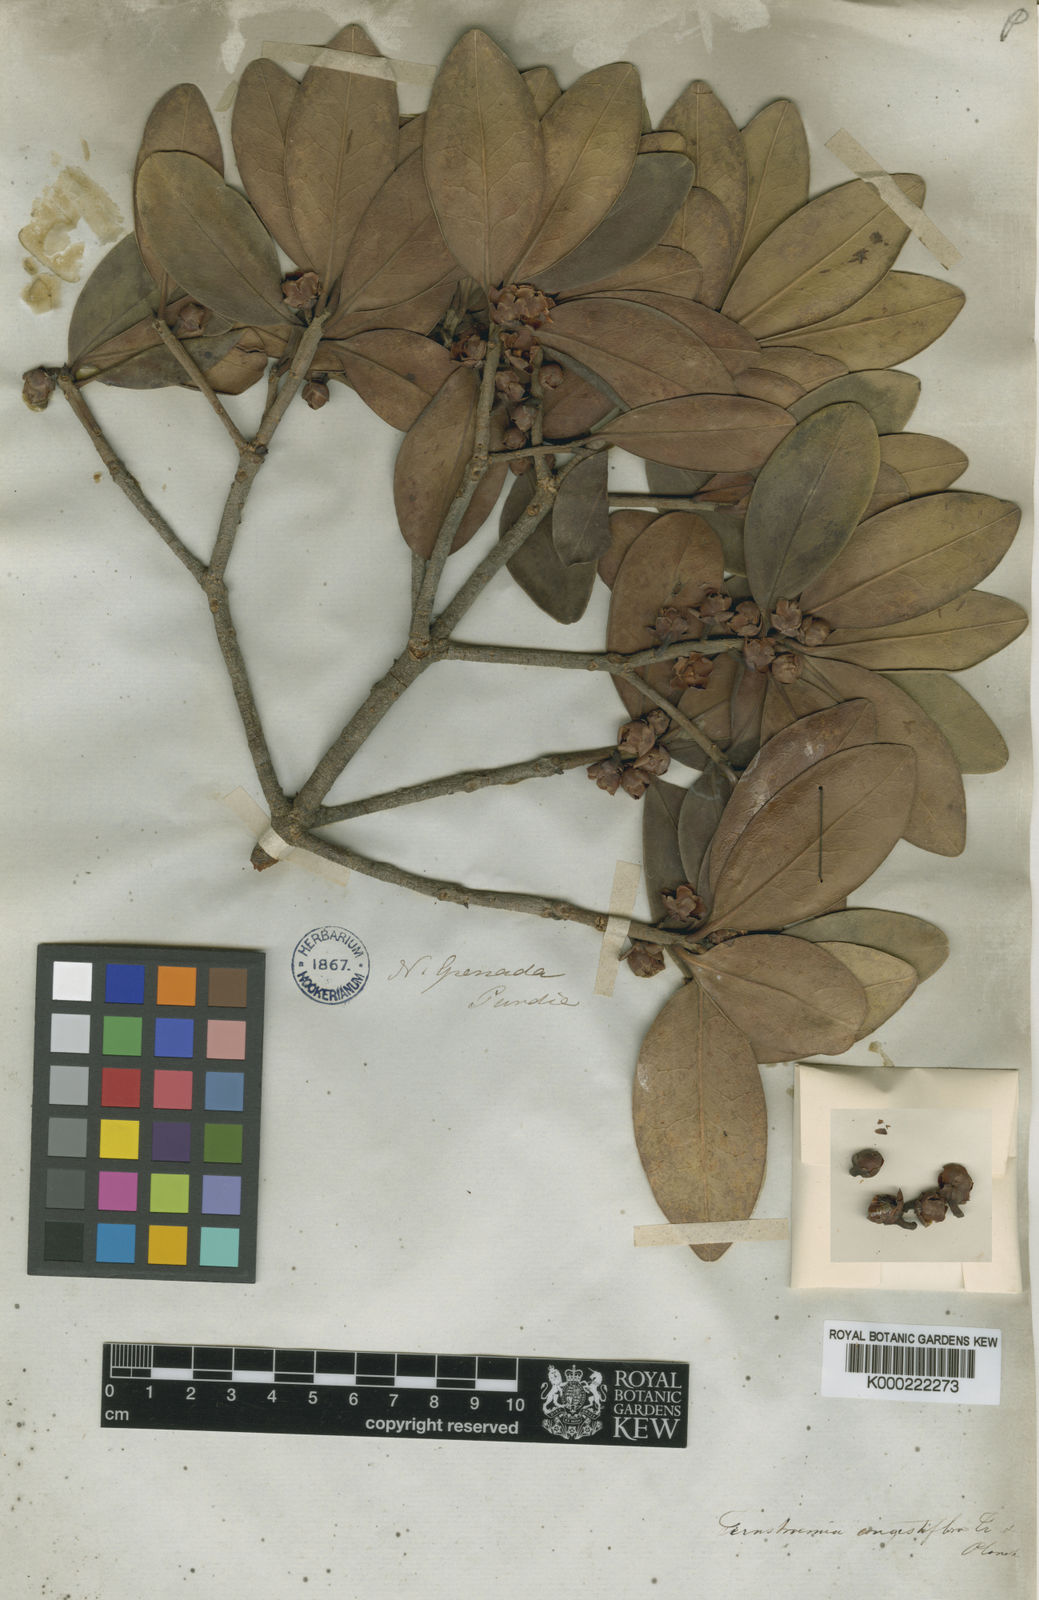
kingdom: Plantae
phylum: Tracheophyta
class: Magnoliopsida
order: Ericales
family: Pentaphylacaceae
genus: Ternstroemia
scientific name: Ternstroemia congestiflora
